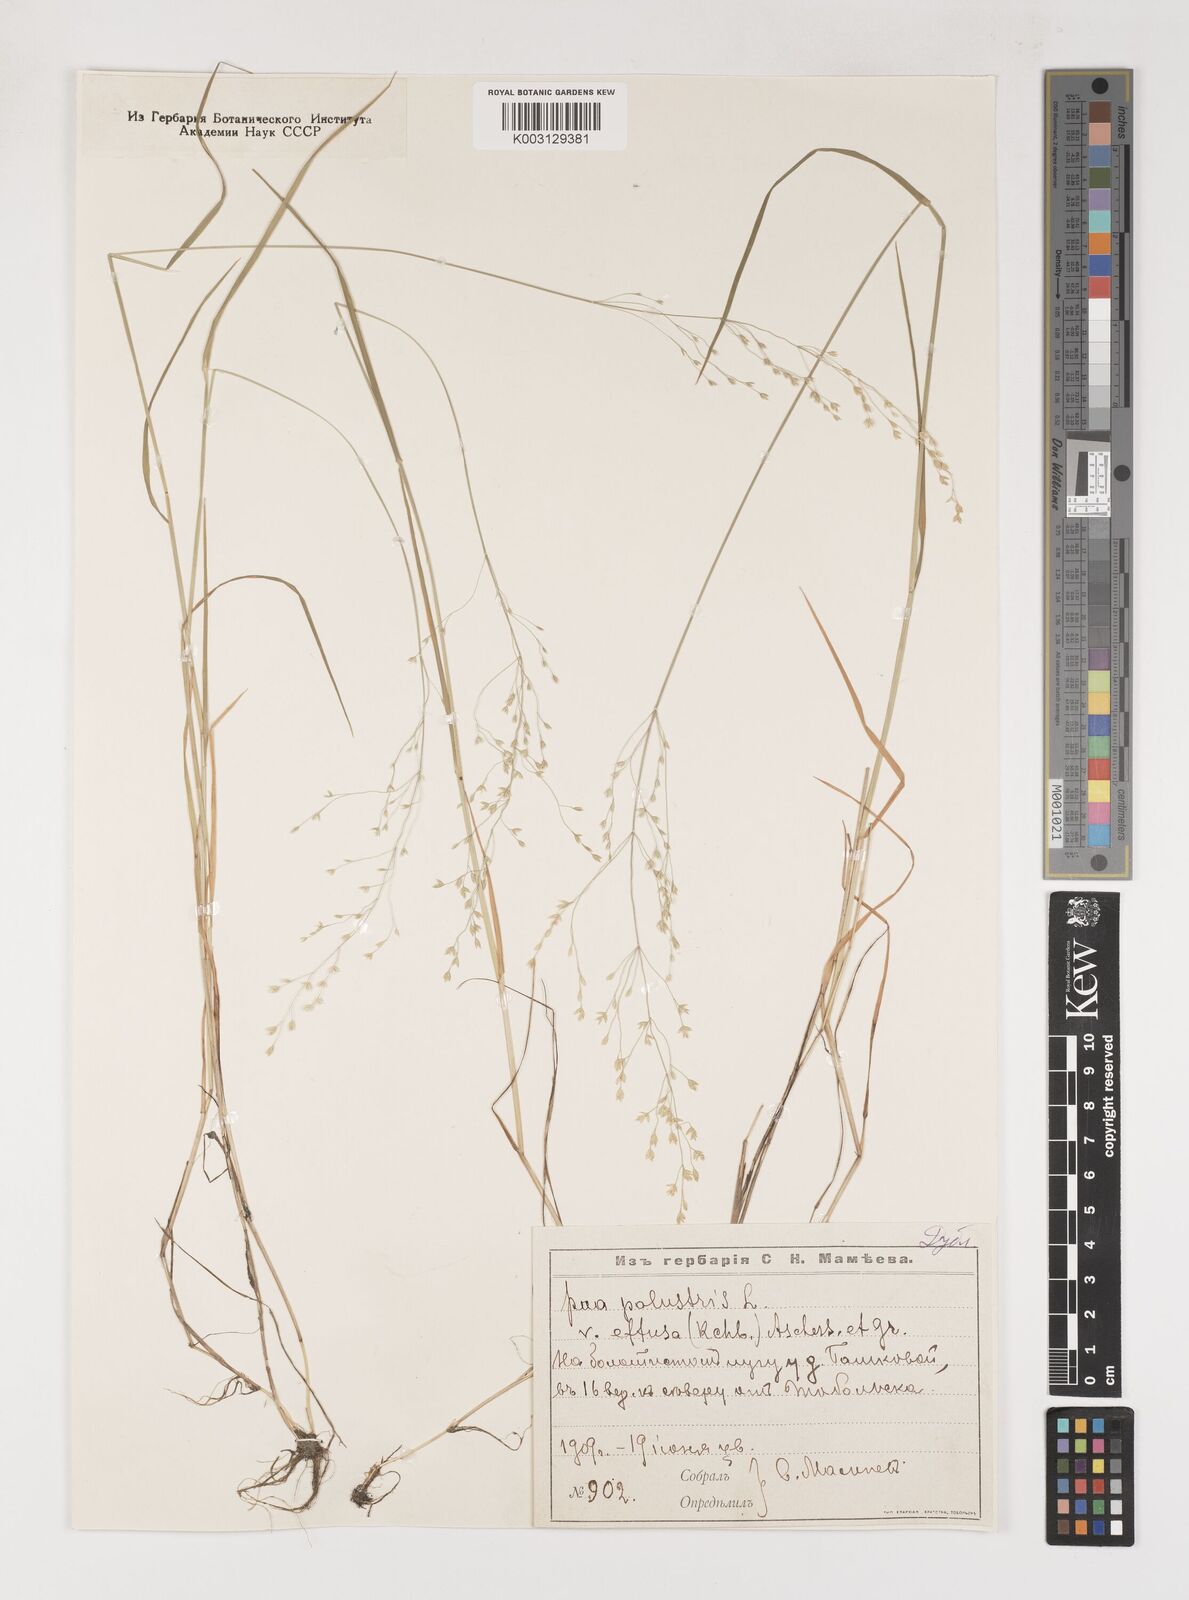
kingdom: Plantae
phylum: Tracheophyta
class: Liliopsida
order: Poales
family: Poaceae
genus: Poa
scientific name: Poa palustris
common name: Swamp meadow-grass
